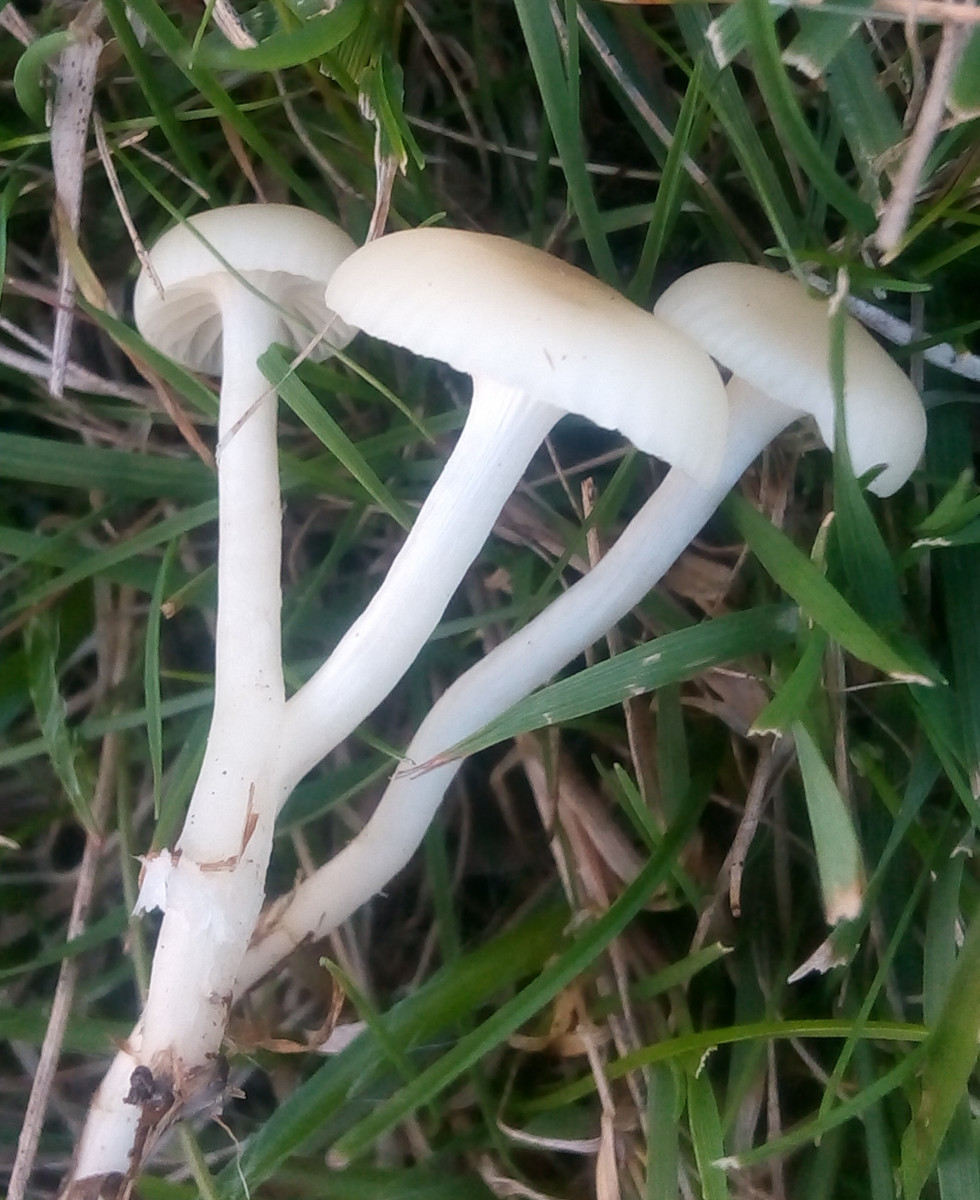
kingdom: Fungi
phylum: Basidiomycota
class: Agaricomycetes
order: Agaricales
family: Hygrophoraceae
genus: Cuphophyllus
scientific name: Cuphophyllus russocoriaceus
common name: ruslæder-vokshat
